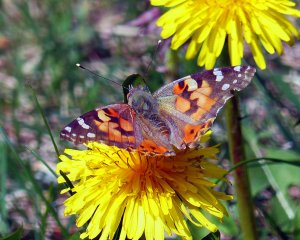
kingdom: Animalia
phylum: Arthropoda
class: Insecta
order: Lepidoptera
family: Nymphalidae
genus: Vanessa
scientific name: Vanessa cardui
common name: Painted Lady
